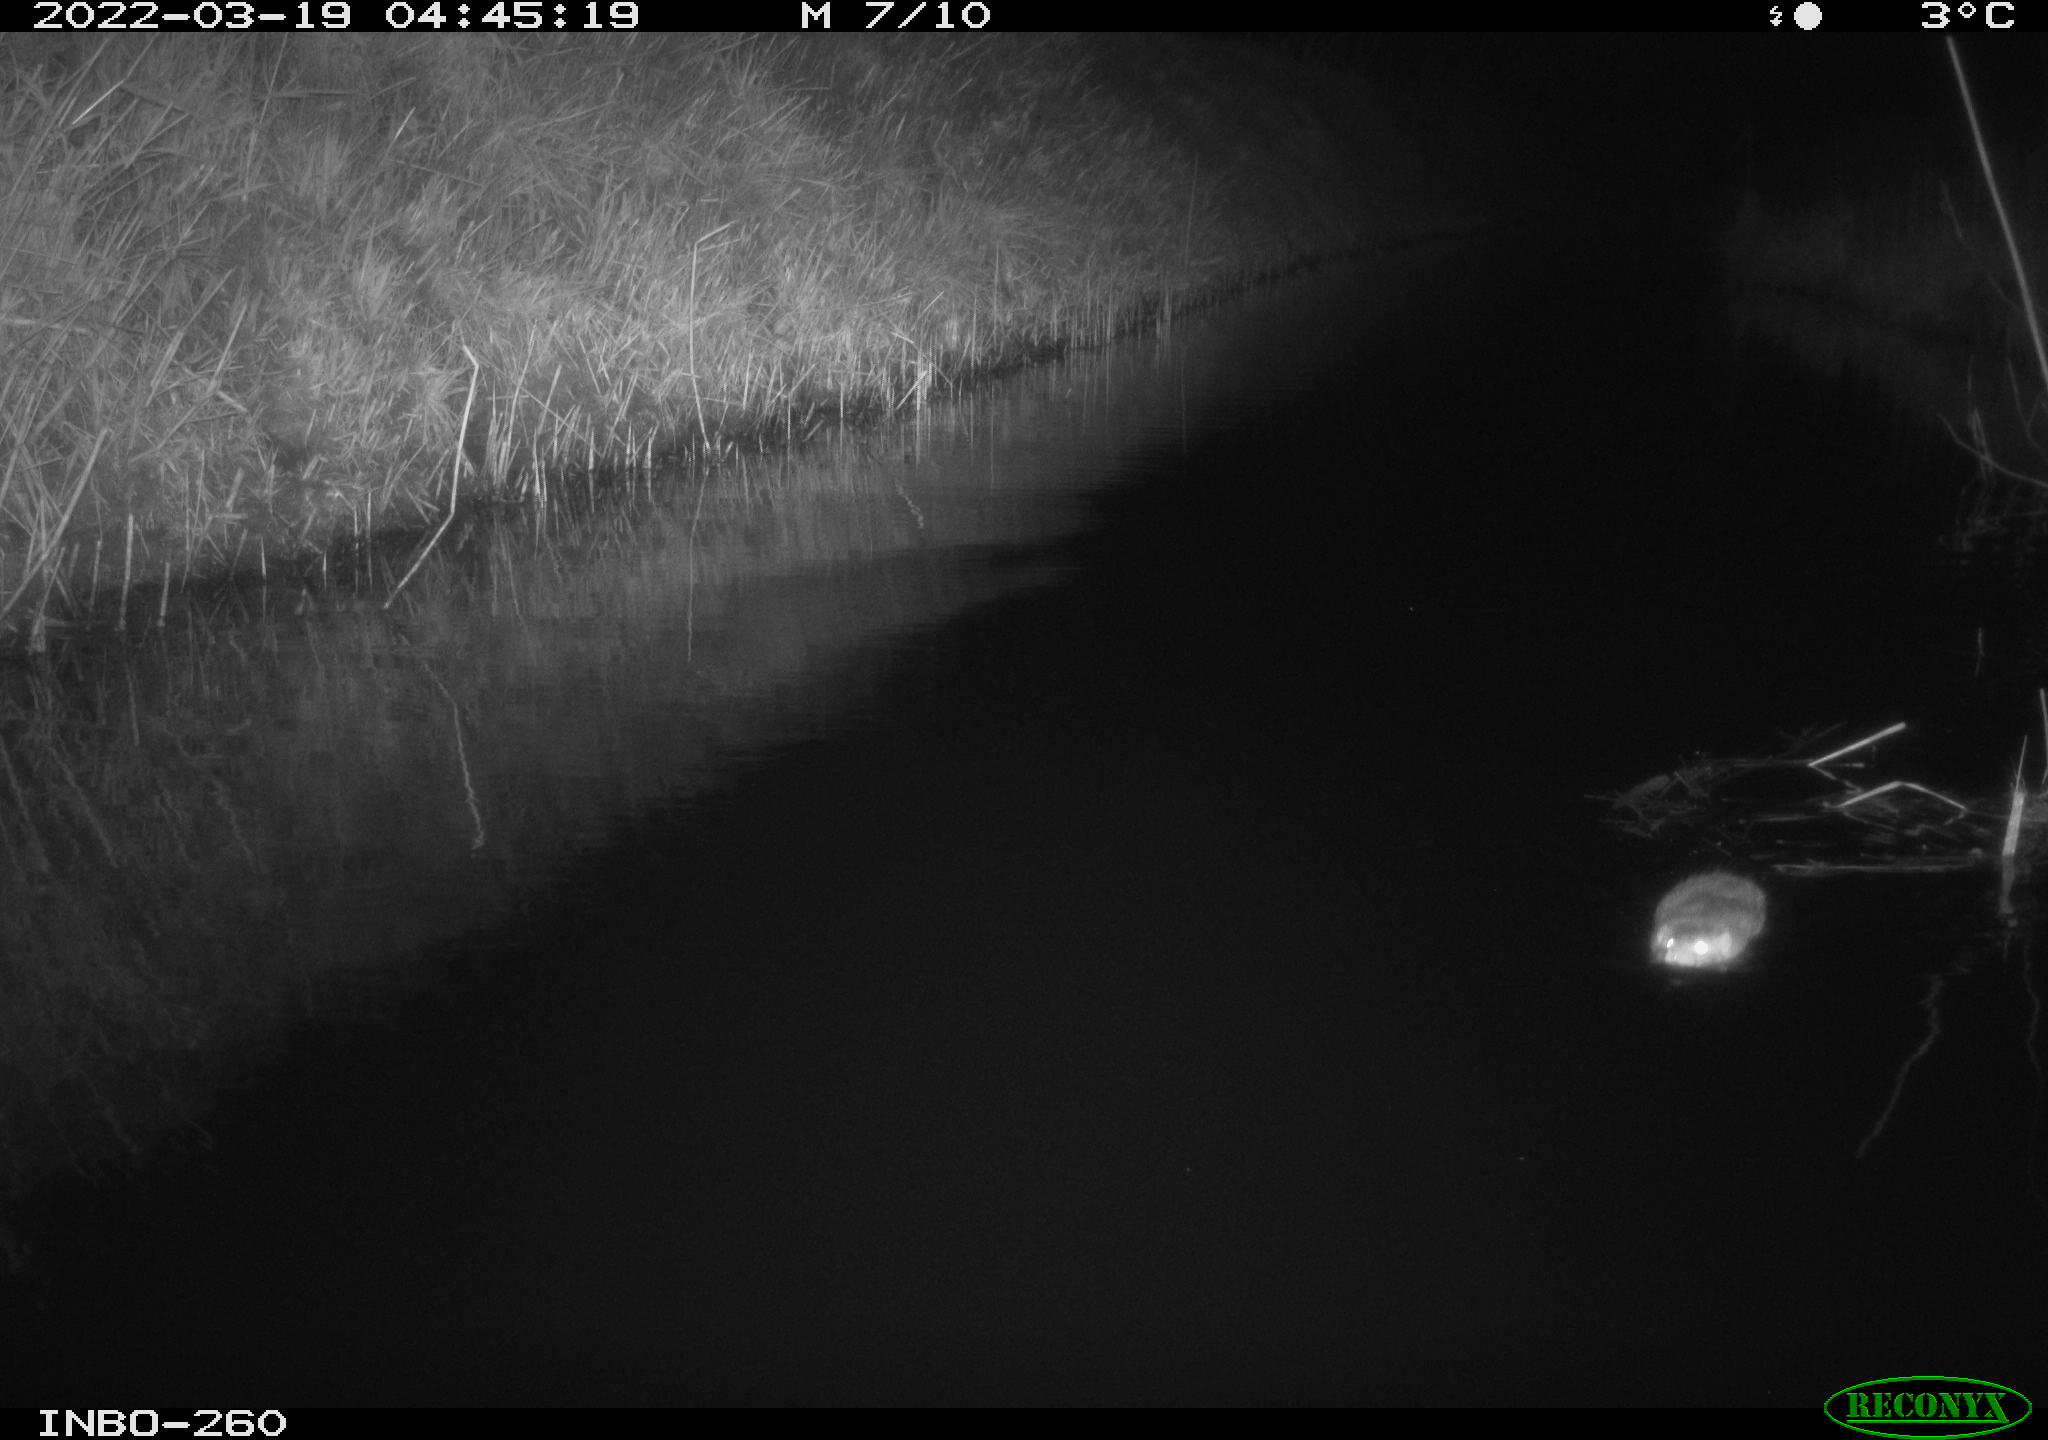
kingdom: Animalia
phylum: Chordata
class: Mammalia
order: Rodentia
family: Muridae
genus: Rattus
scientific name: Rattus norvegicus
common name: Brown rat
